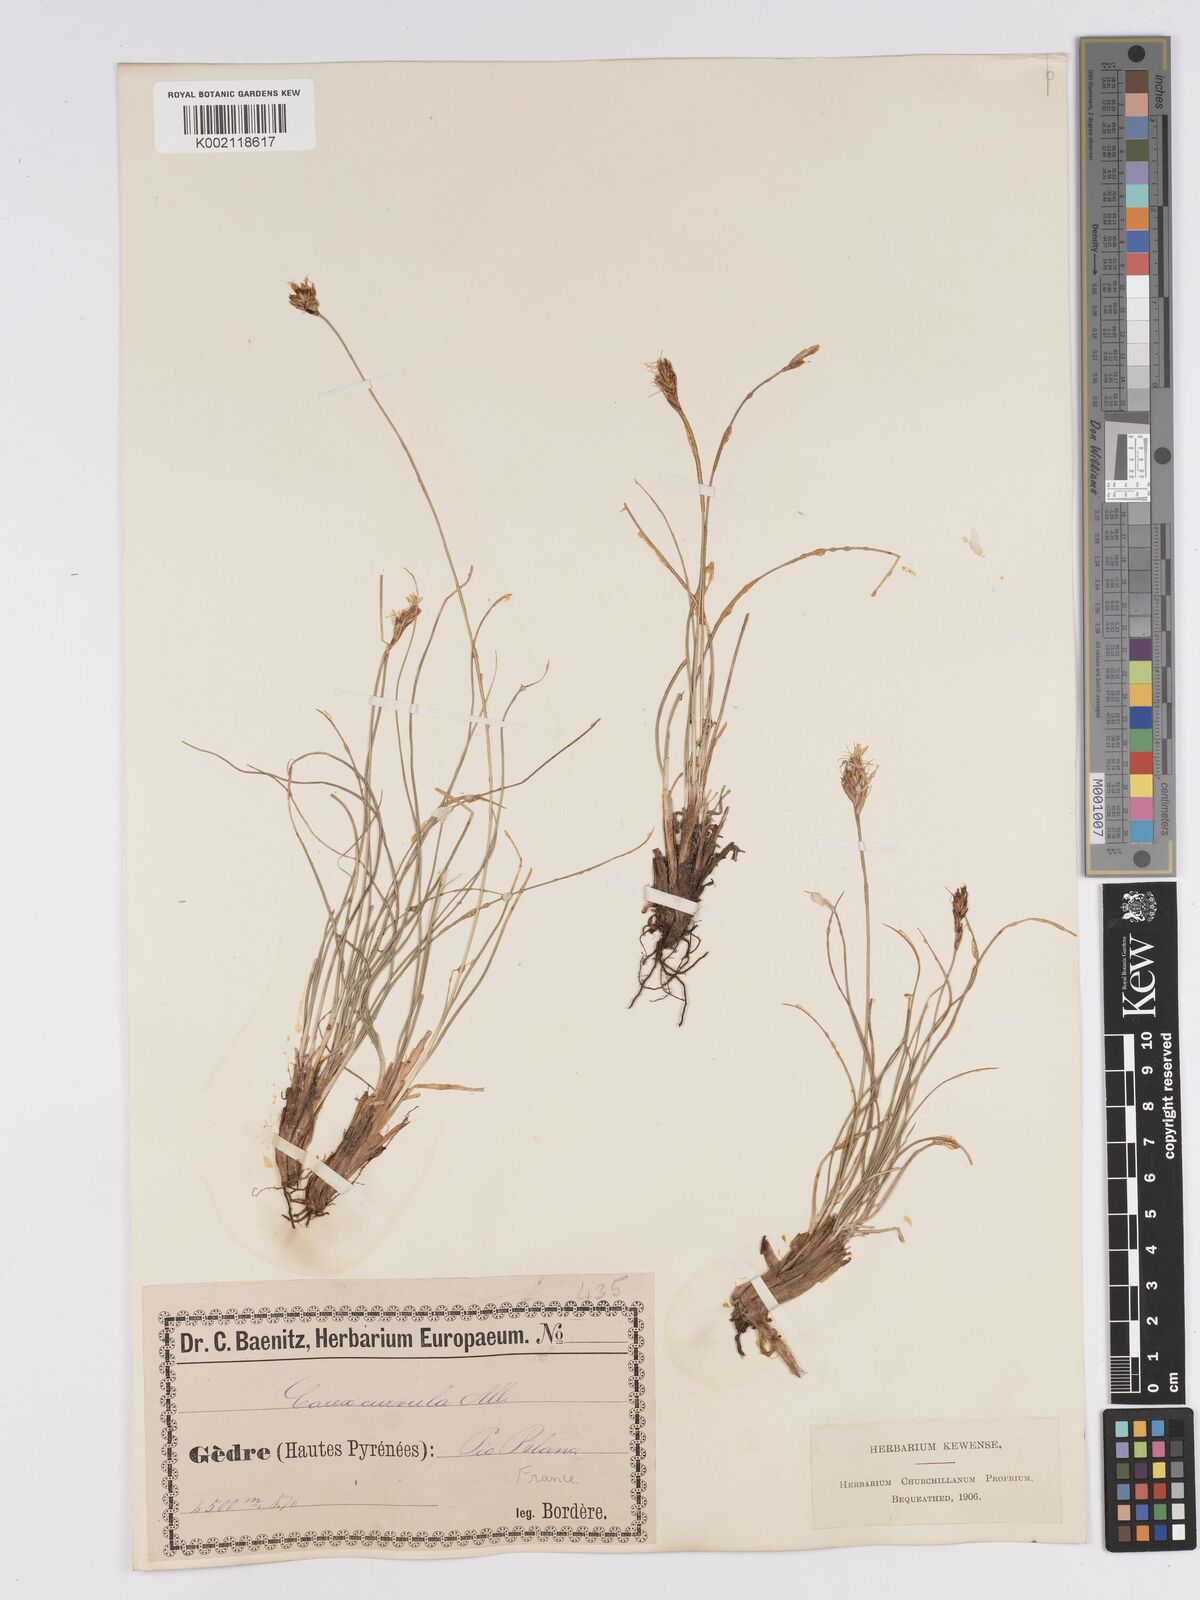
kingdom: Plantae
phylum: Tracheophyta
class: Liliopsida
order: Poales
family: Cyperaceae
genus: Carex
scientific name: Carex curvula
